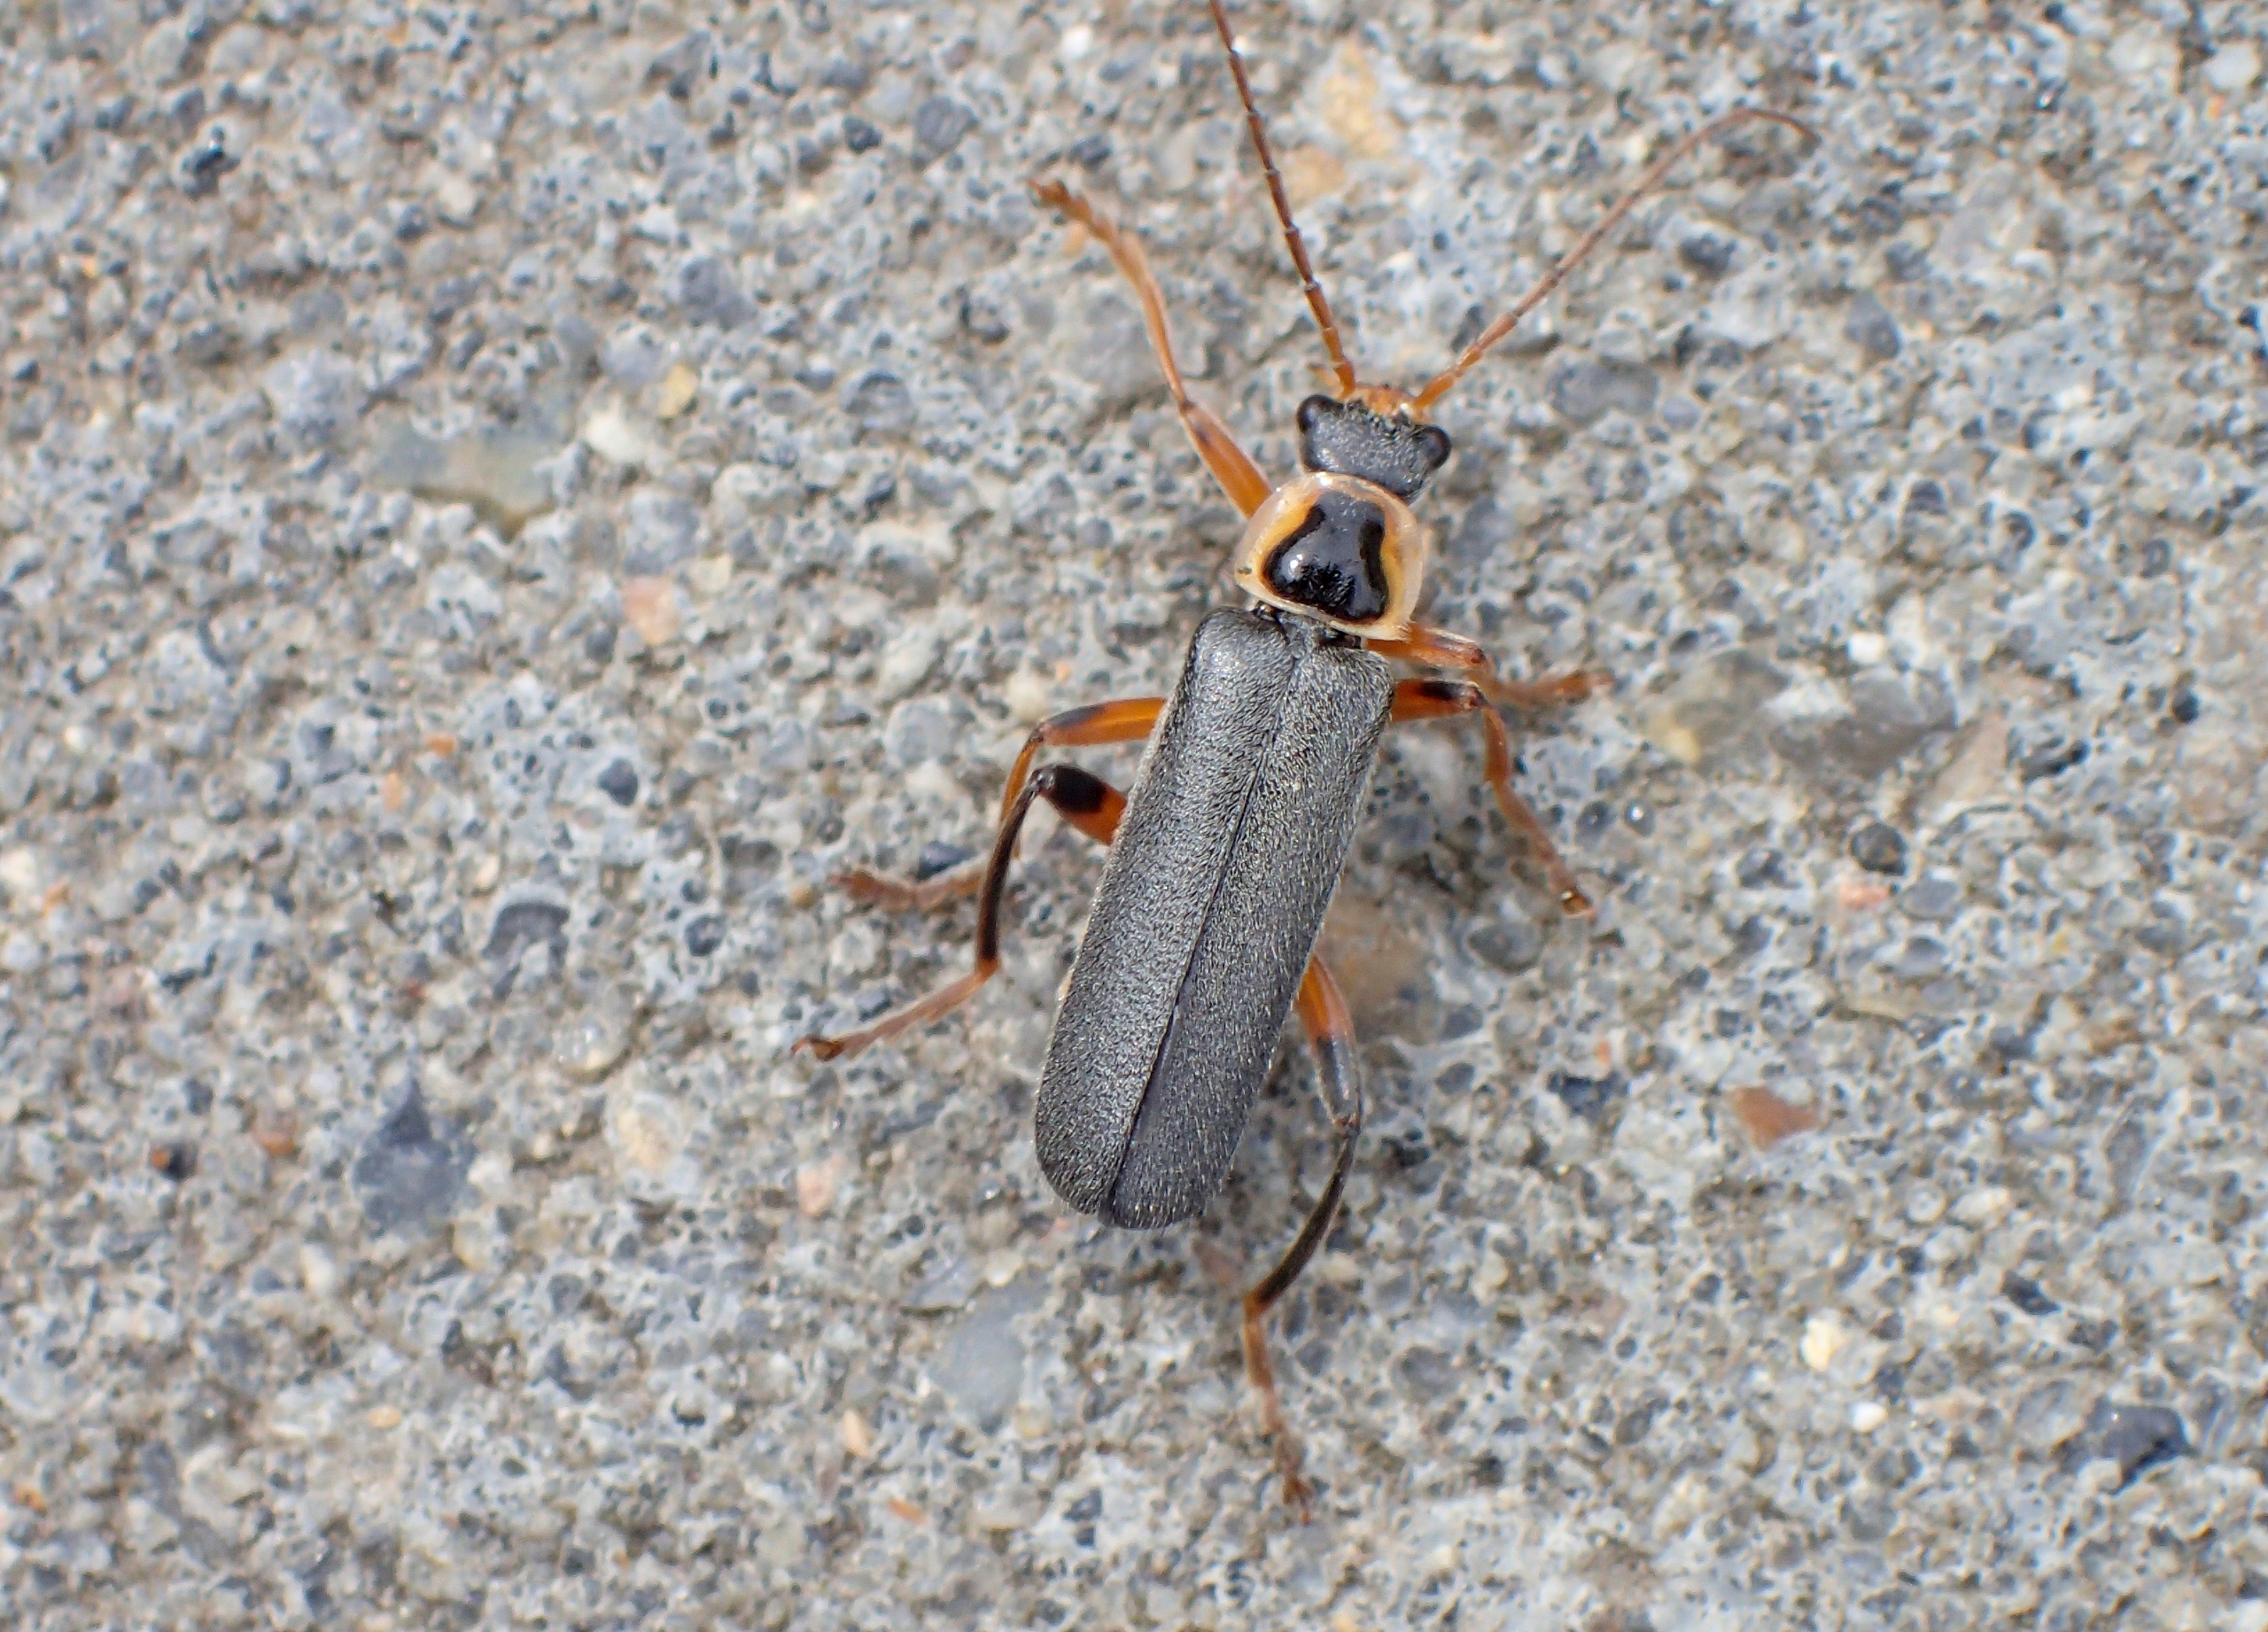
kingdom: Animalia
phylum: Arthropoda
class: Insecta
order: Coleoptera
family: Cantharidae
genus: Cantharis
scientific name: Cantharis nigricans
